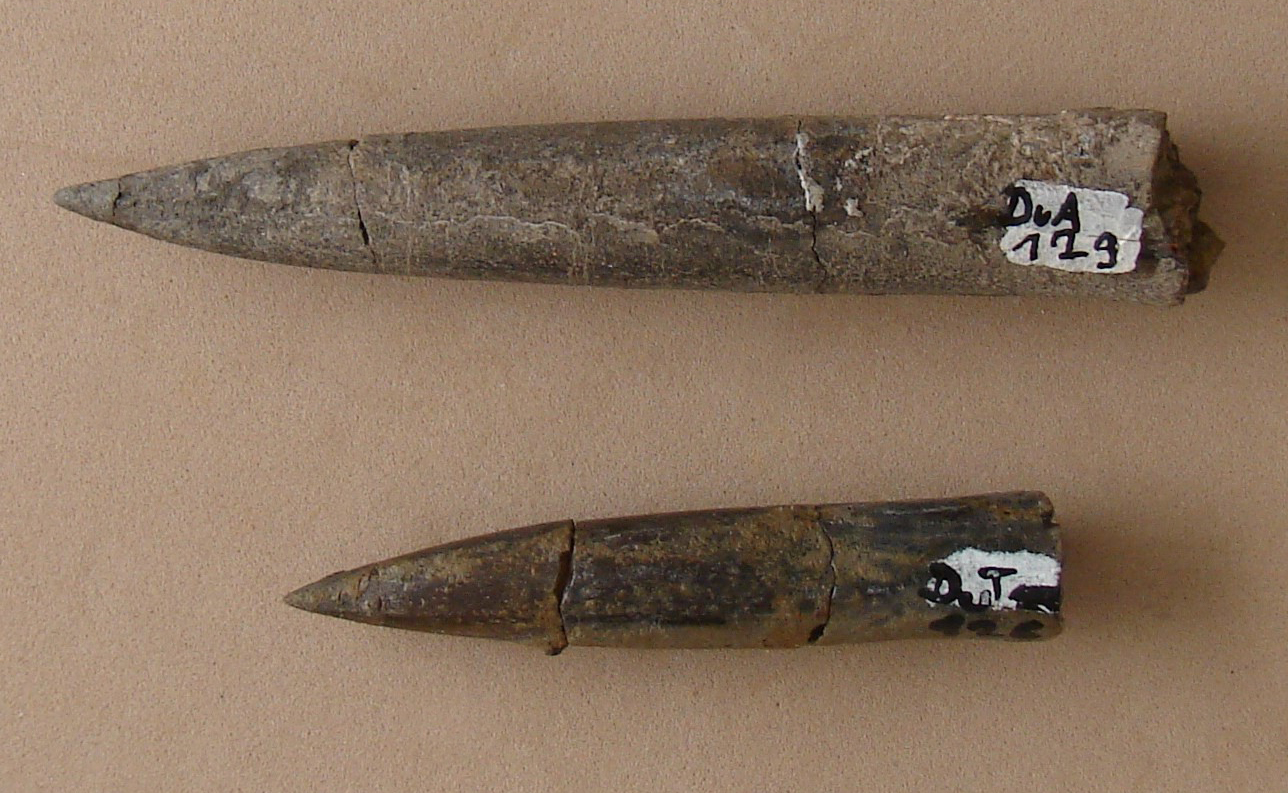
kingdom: Animalia
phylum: Mollusca
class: Cephalopoda
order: Belemnitida
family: Megateuthididae
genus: Cuspiteuthis
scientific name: Cuspiteuthis
